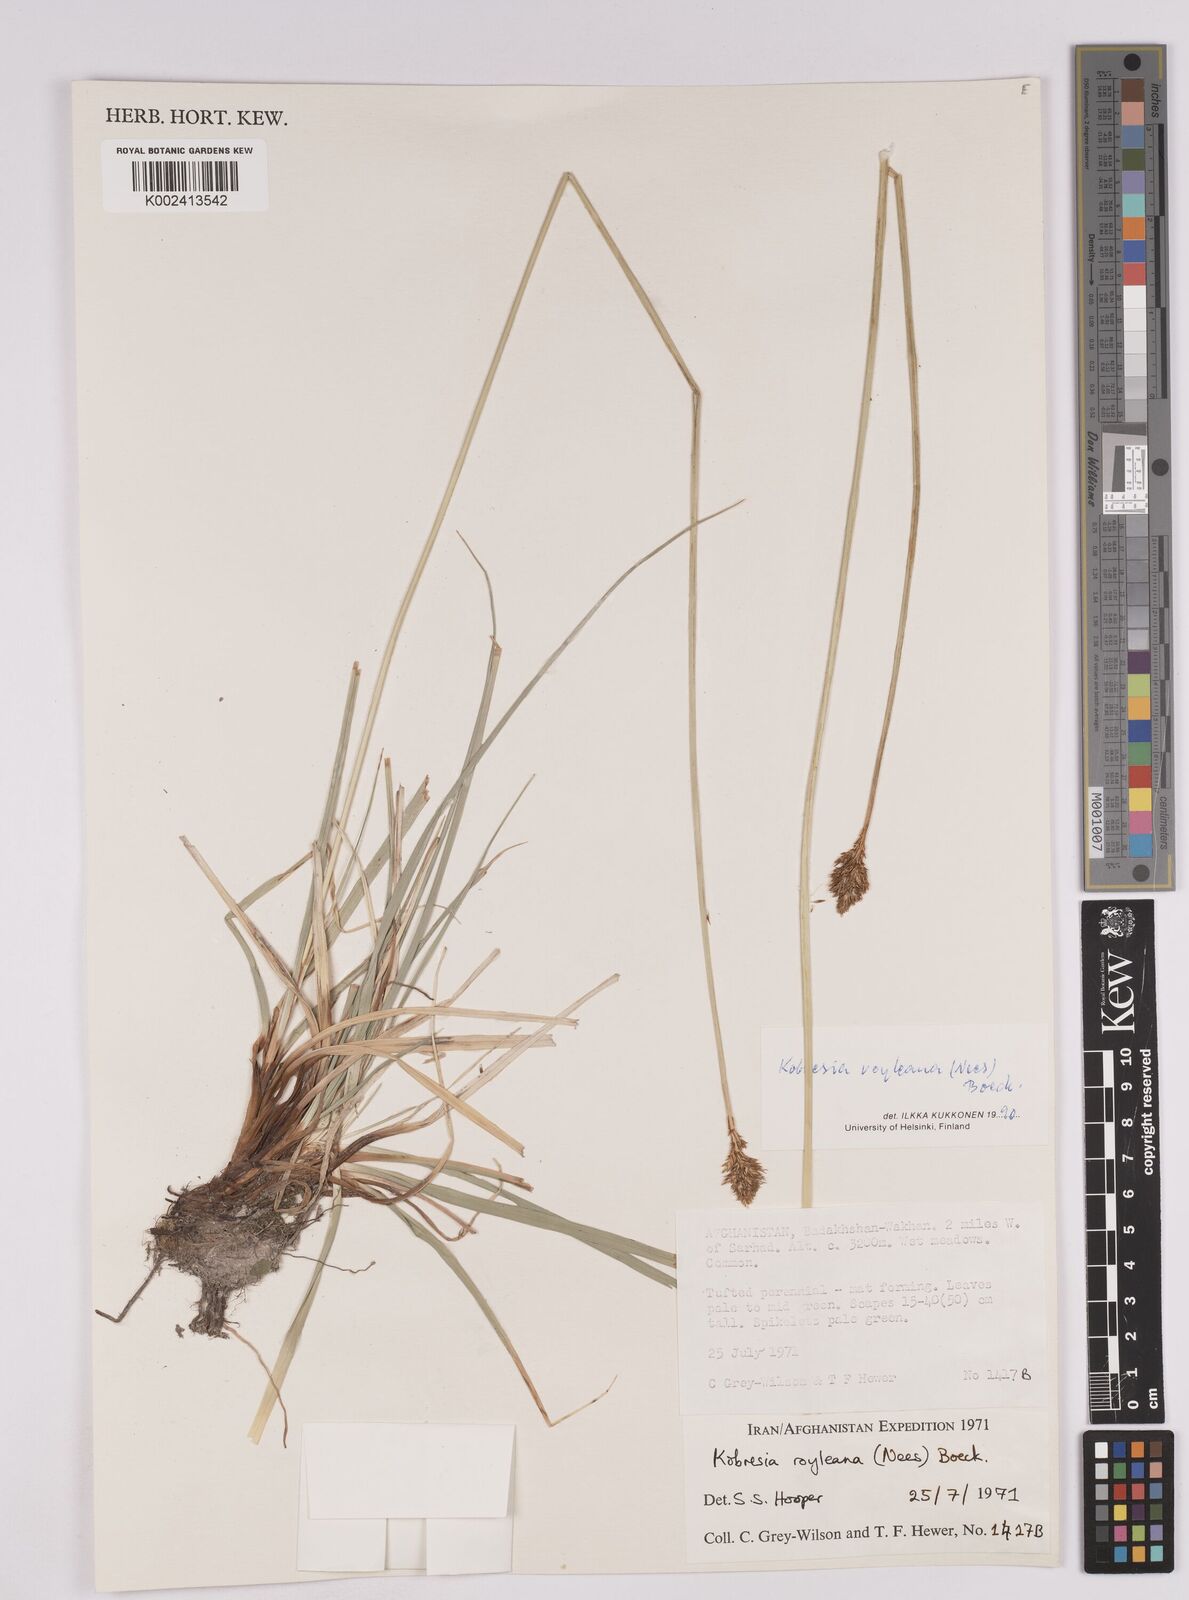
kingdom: Plantae
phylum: Tracheophyta
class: Liliopsida
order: Poales
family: Cyperaceae
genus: Carex
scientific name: Carex kokanica
